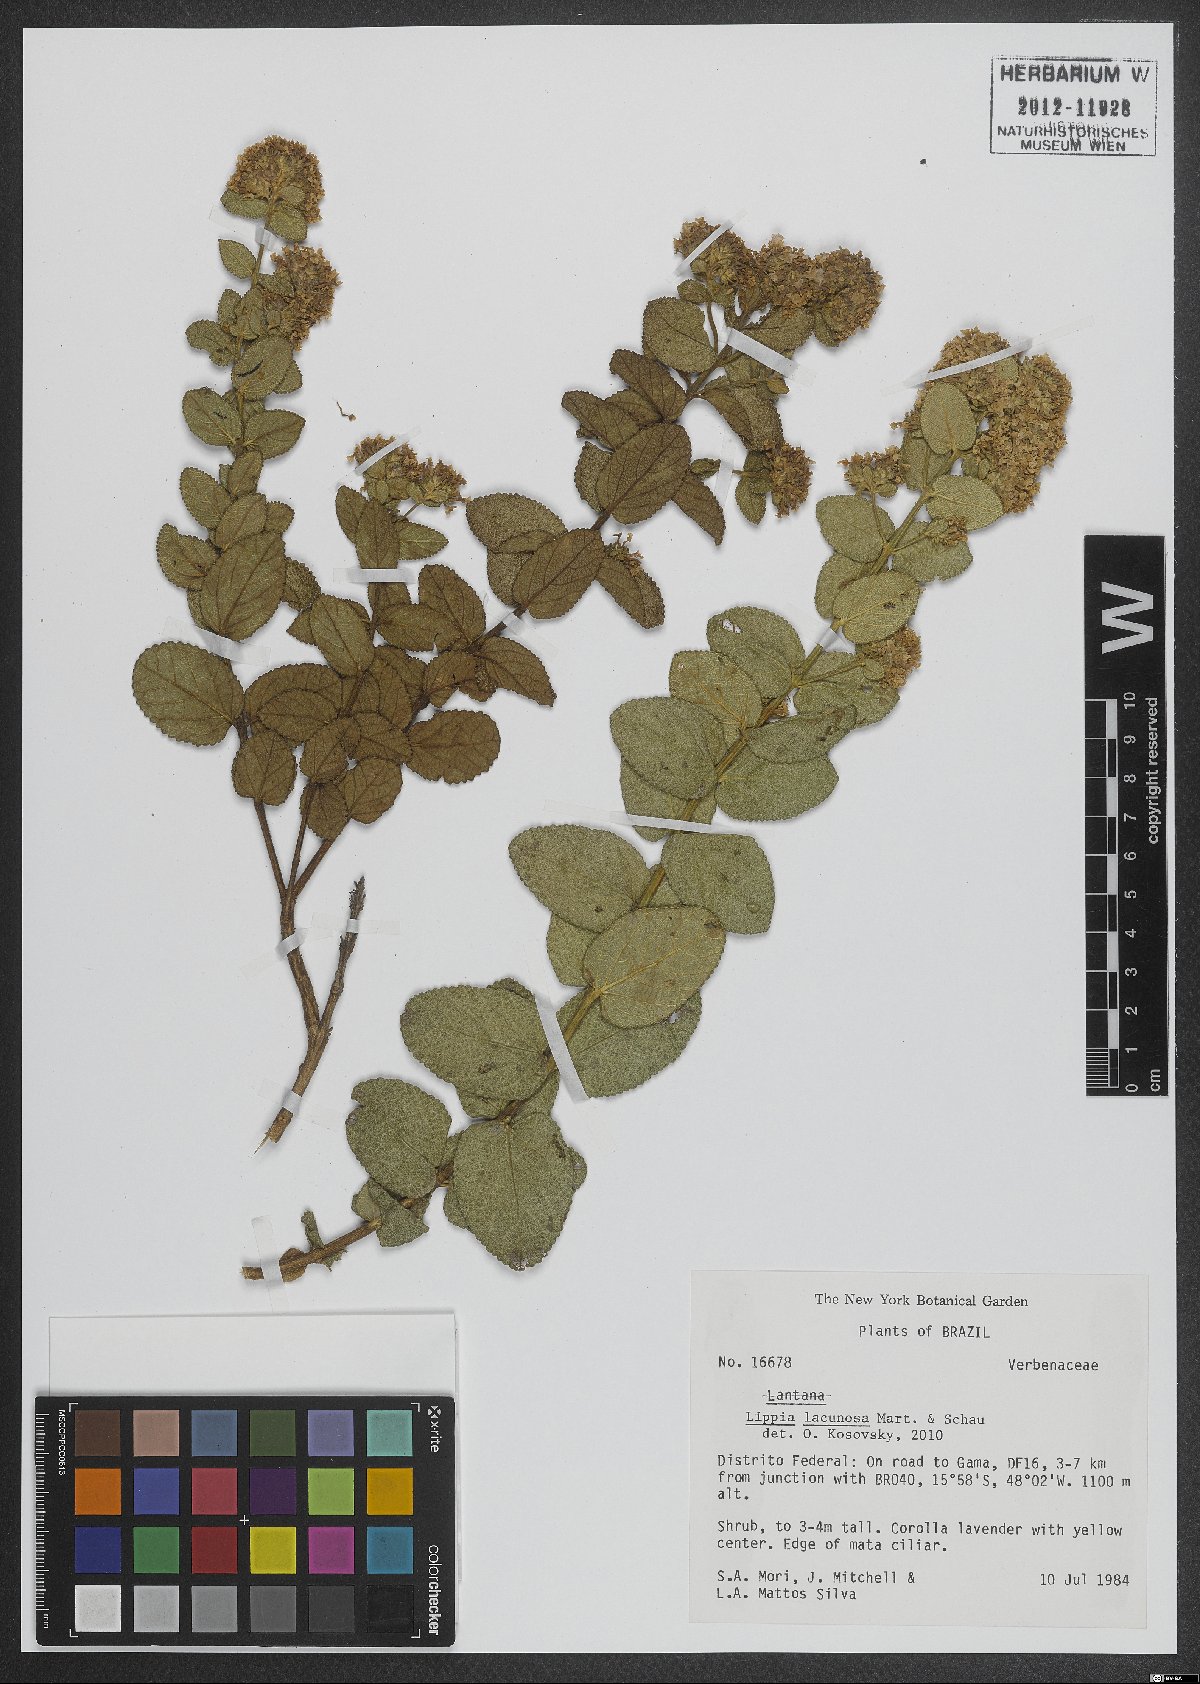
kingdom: Plantae
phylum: Tracheophyta
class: Magnoliopsida
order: Lamiales
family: Verbenaceae
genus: Lippia
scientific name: Lippia lacunosa
